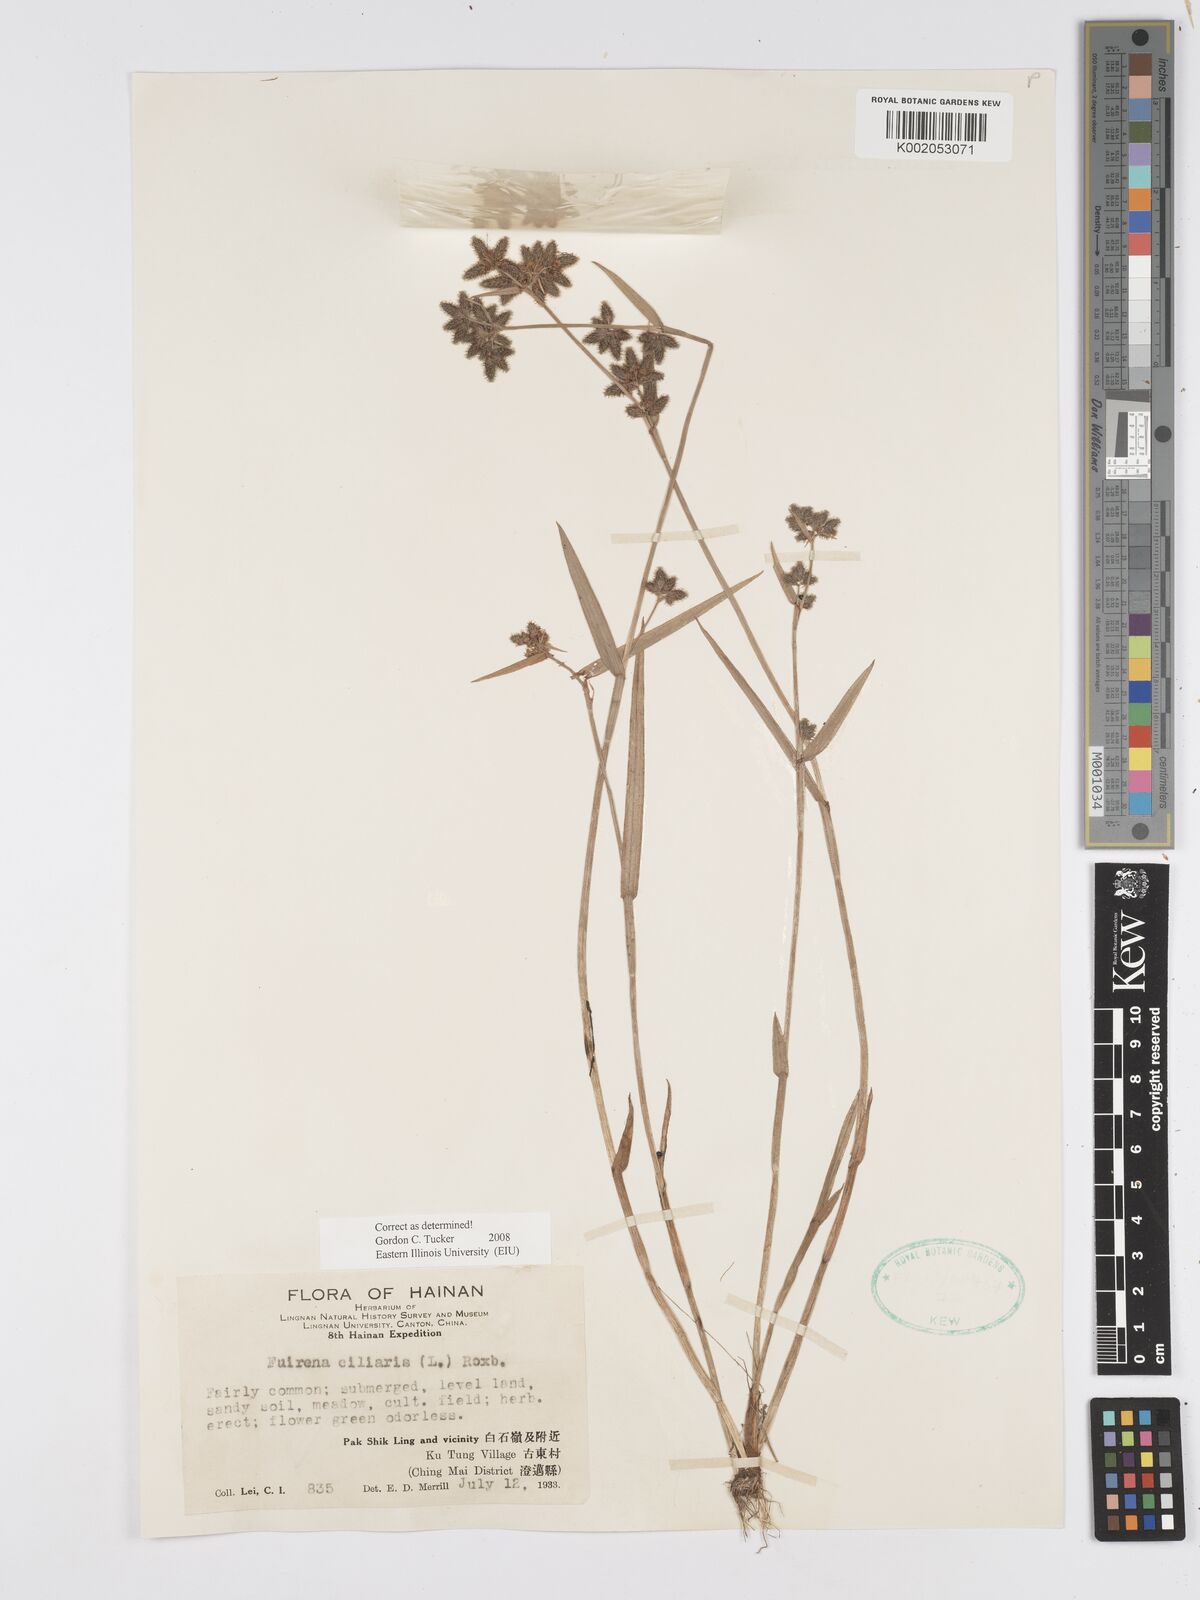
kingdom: Plantae
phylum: Tracheophyta
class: Liliopsida
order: Poales
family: Cyperaceae
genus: Fuirena
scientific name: Fuirena ciliaris
